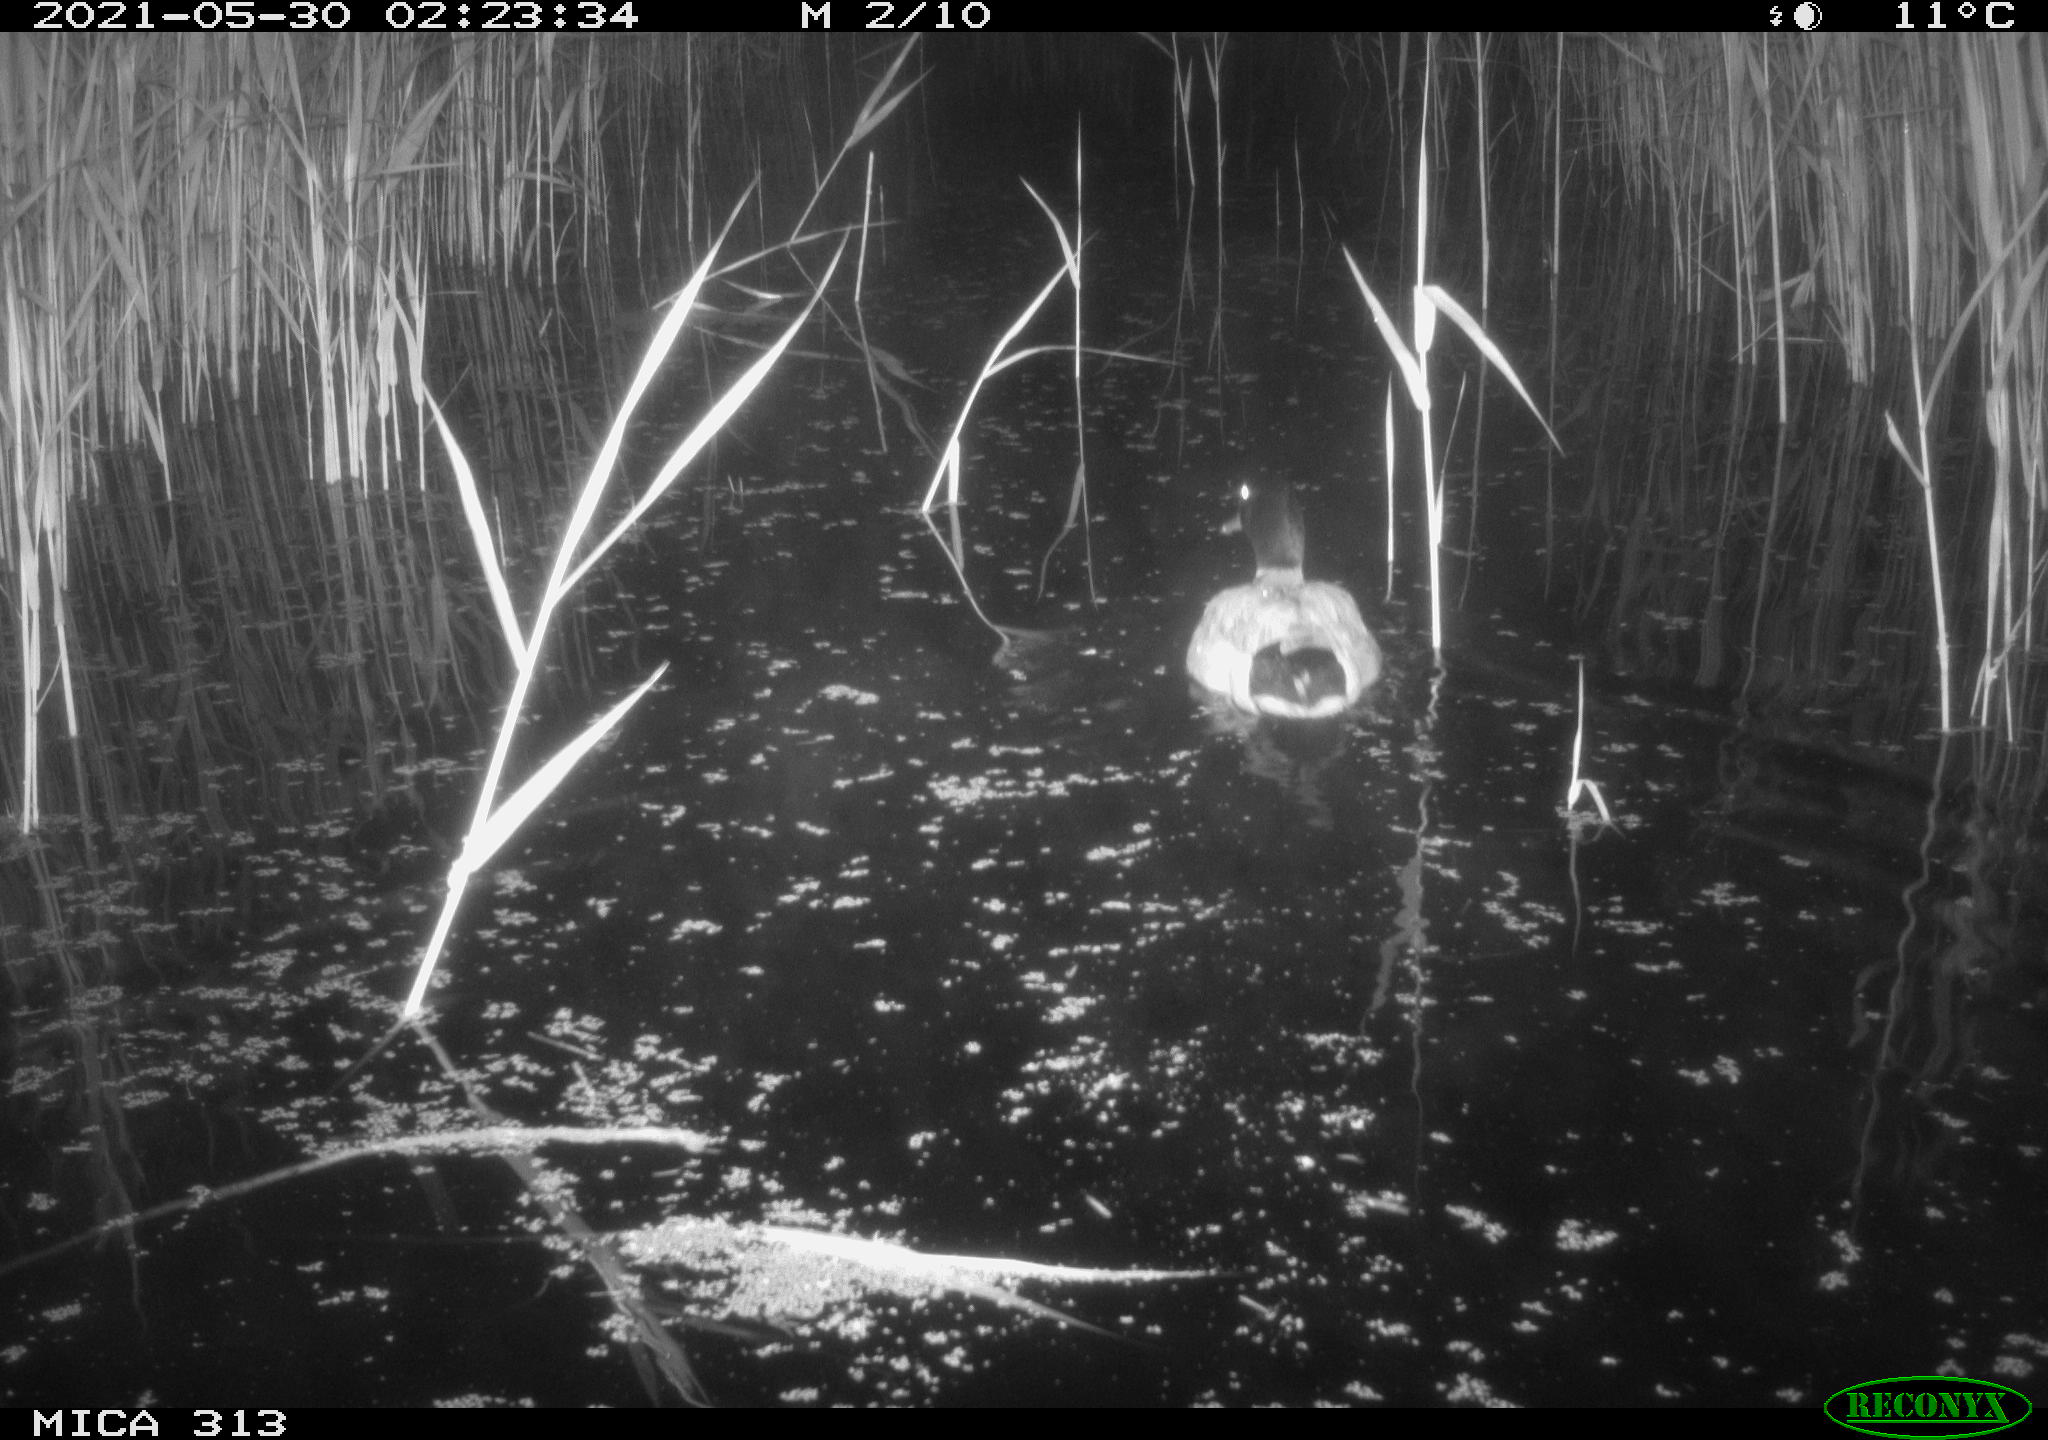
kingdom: Animalia
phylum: Chordata
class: Aves
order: Anseriformes
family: Anatidae
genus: Anas
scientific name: Anas platyrhynchos
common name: Mallard
